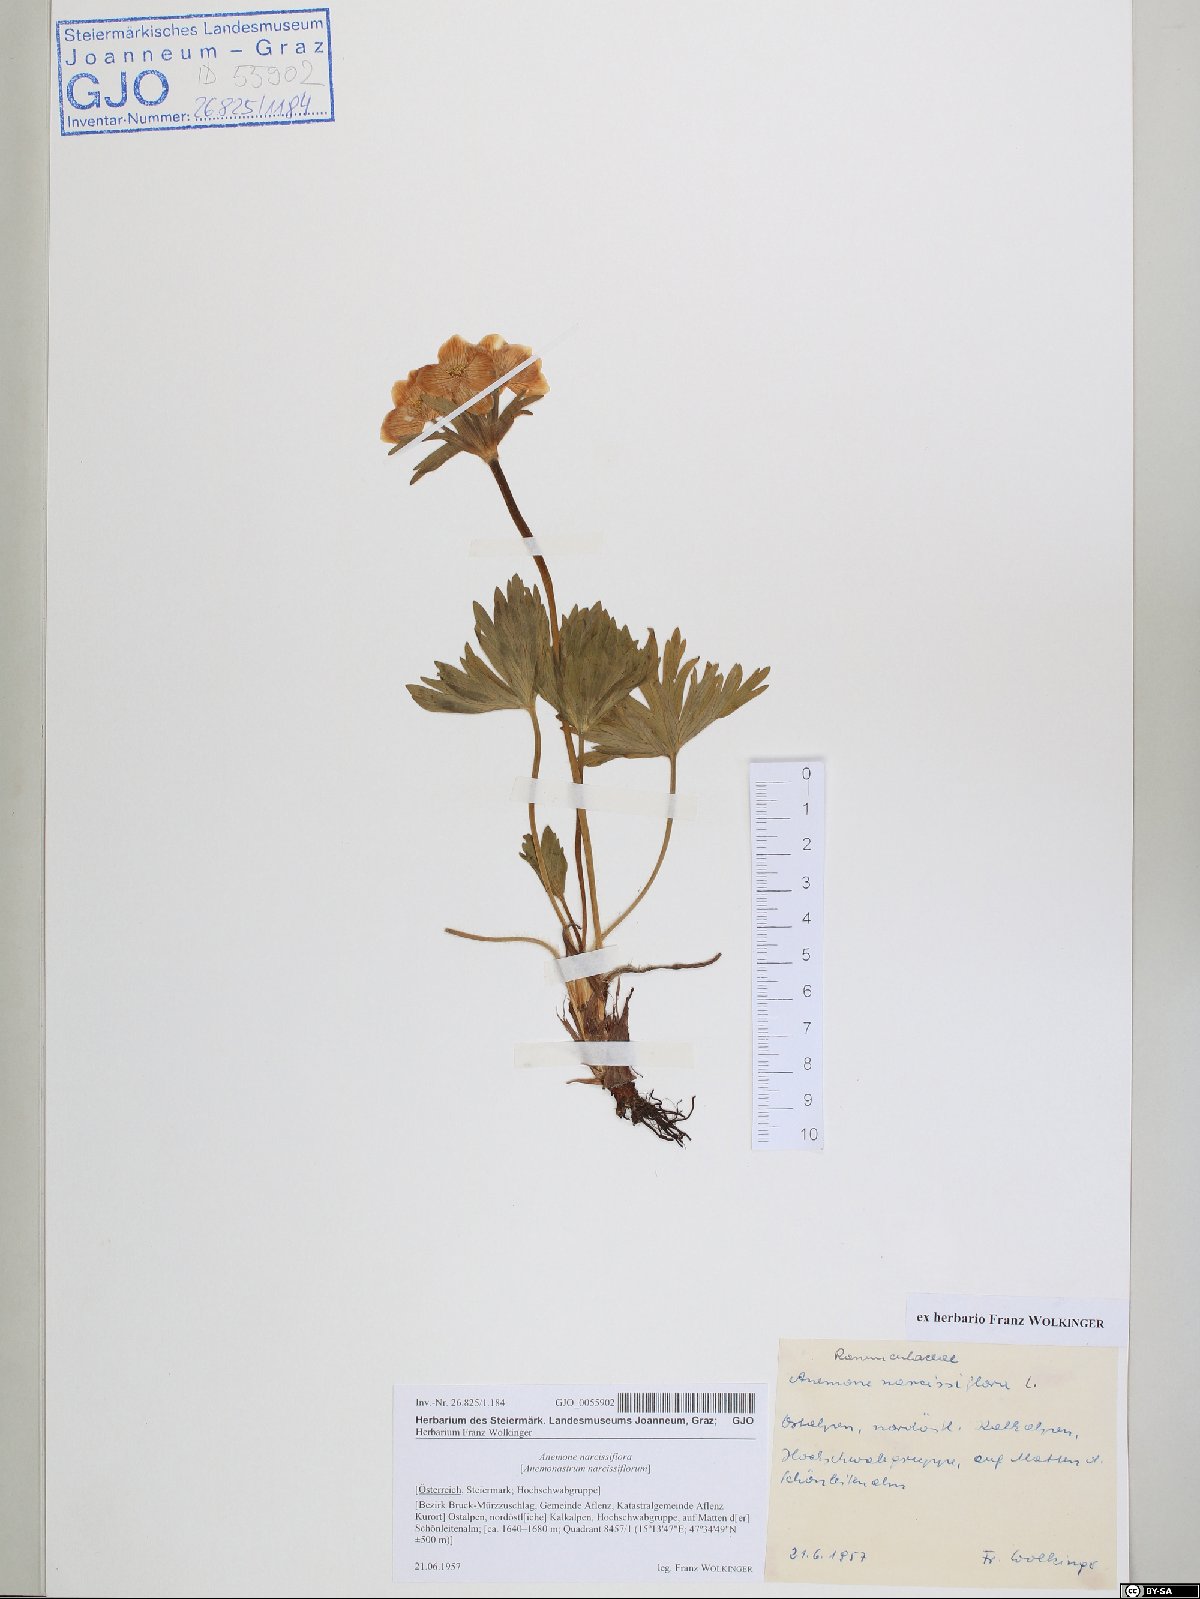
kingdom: Plantae
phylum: Tracheophyta
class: Magnoliopsida
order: Ranunculales
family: Ranunculaceae
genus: Anemonastrum
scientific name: Anemonastrum narcissiflorum
